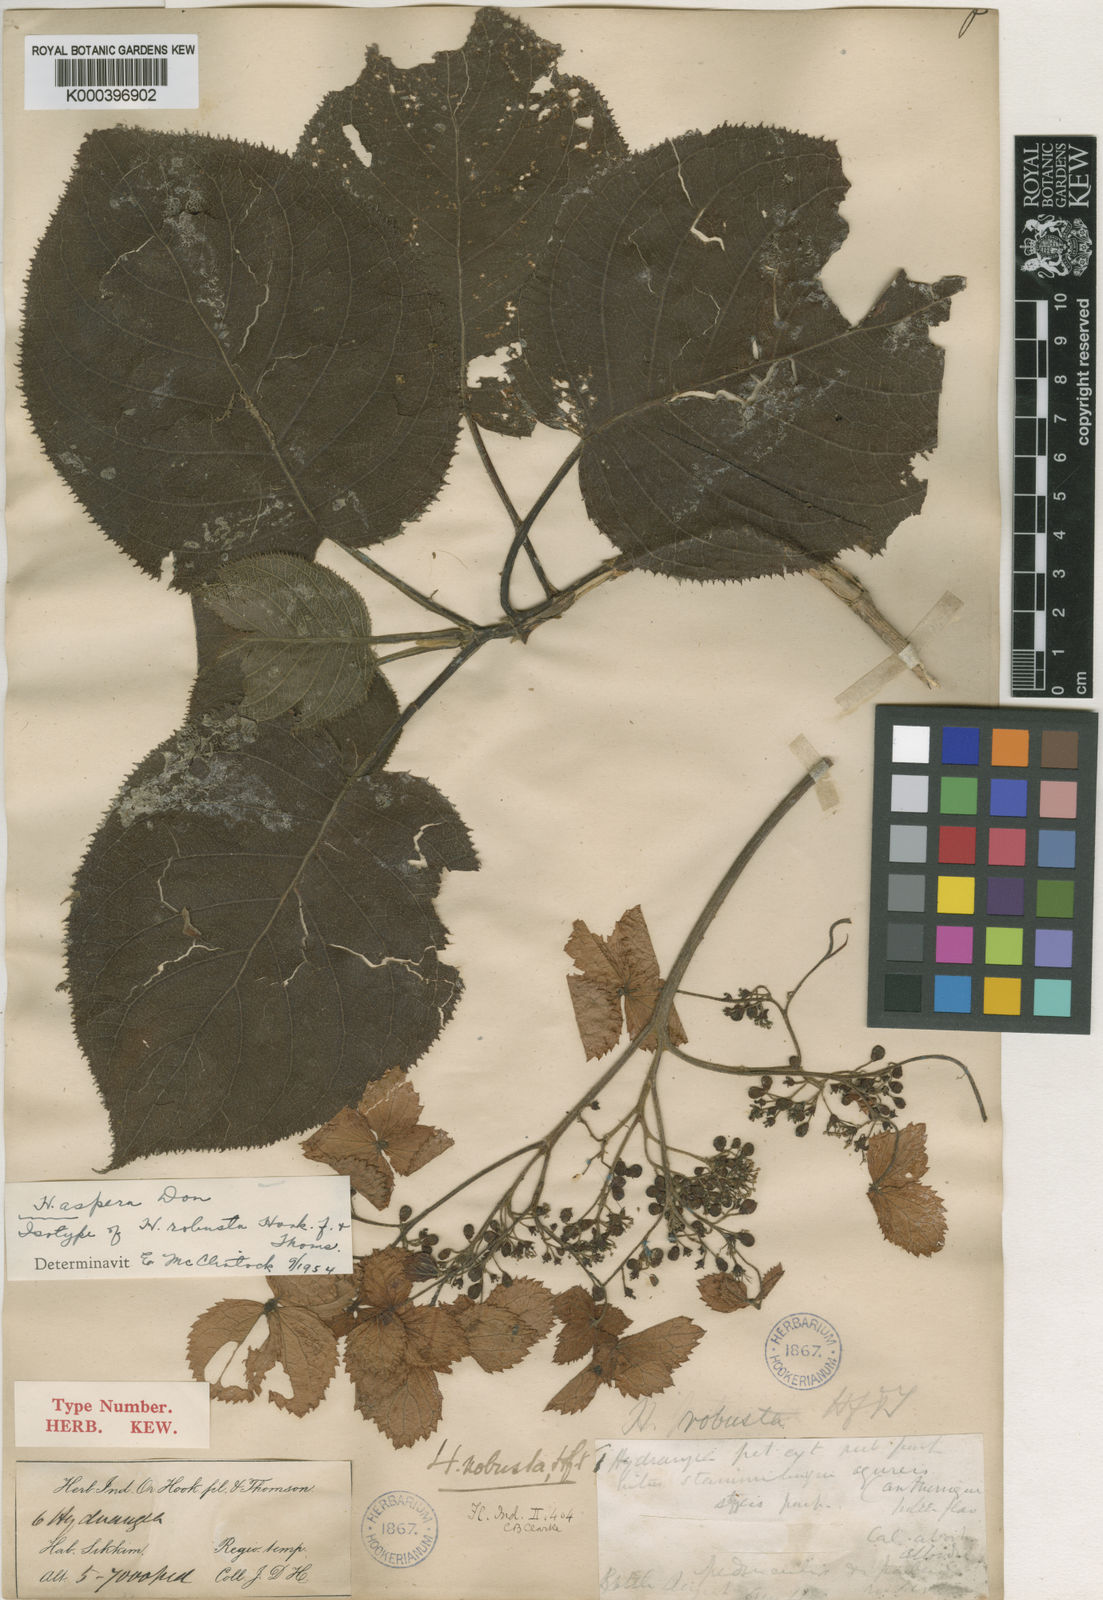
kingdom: Plantae
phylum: Tracheophyta
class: Magnoliopsida
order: Cornales
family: Hydrangeaceae
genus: Hydrangea
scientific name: Hydrangea aspera
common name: Rough-leaf hydrangea
